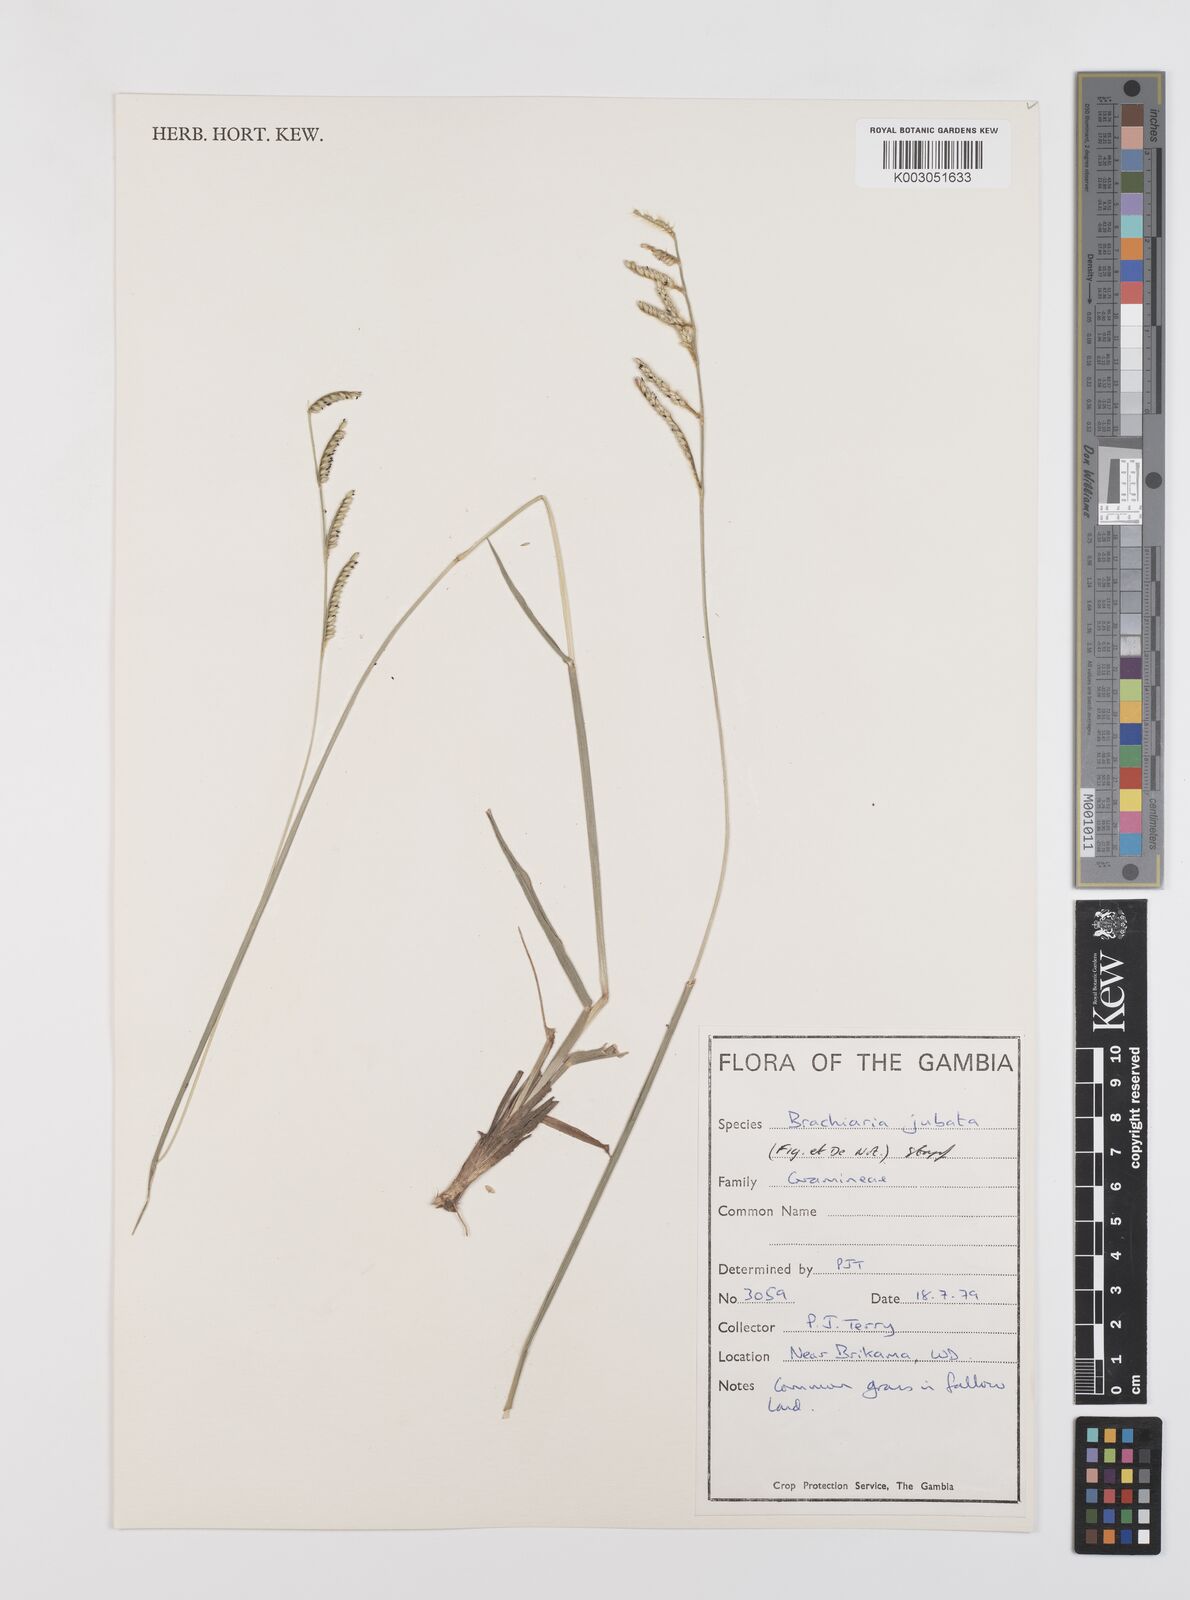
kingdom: Plantae
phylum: Tracheophyta
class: Liliopsida
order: Poales
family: Poaceae
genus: Urochloa
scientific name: Urochloa jubata
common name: Buffalograss
